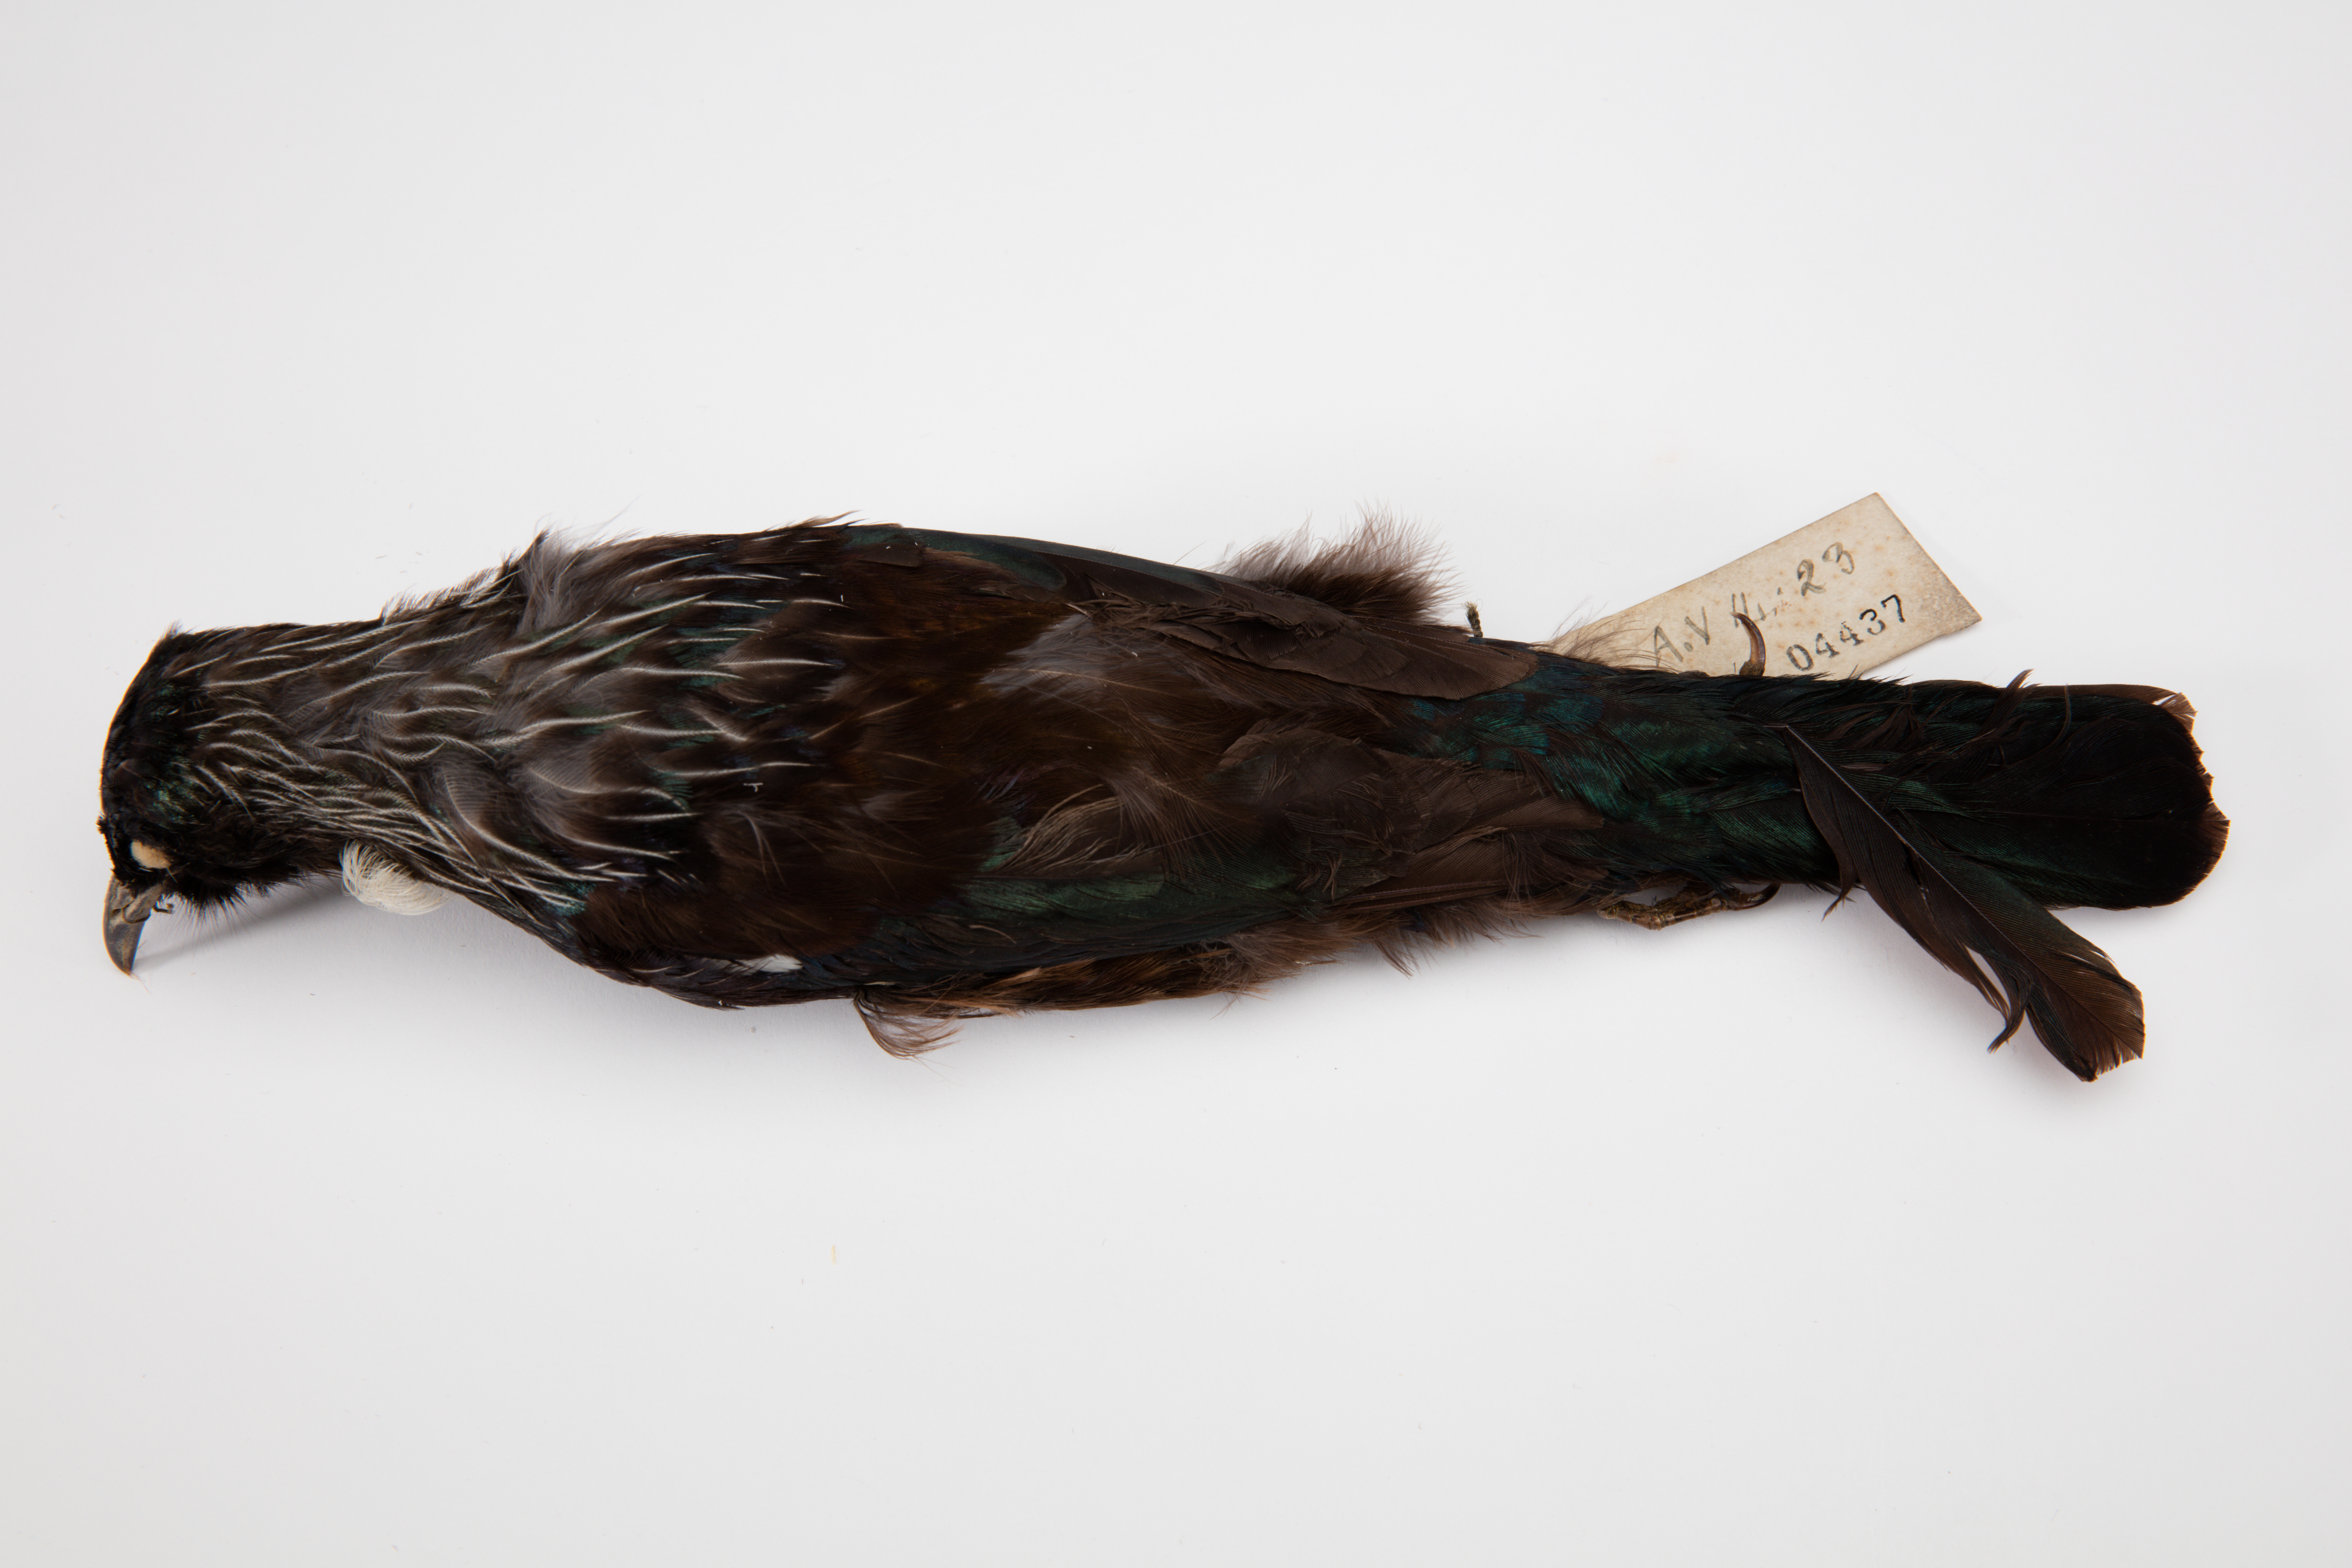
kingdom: Animalia
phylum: Chordata
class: Aves
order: Passeriformes
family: Meliphagidae
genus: Prosthemadera
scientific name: Prosthemadera novaeseelandiae
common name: Tui
